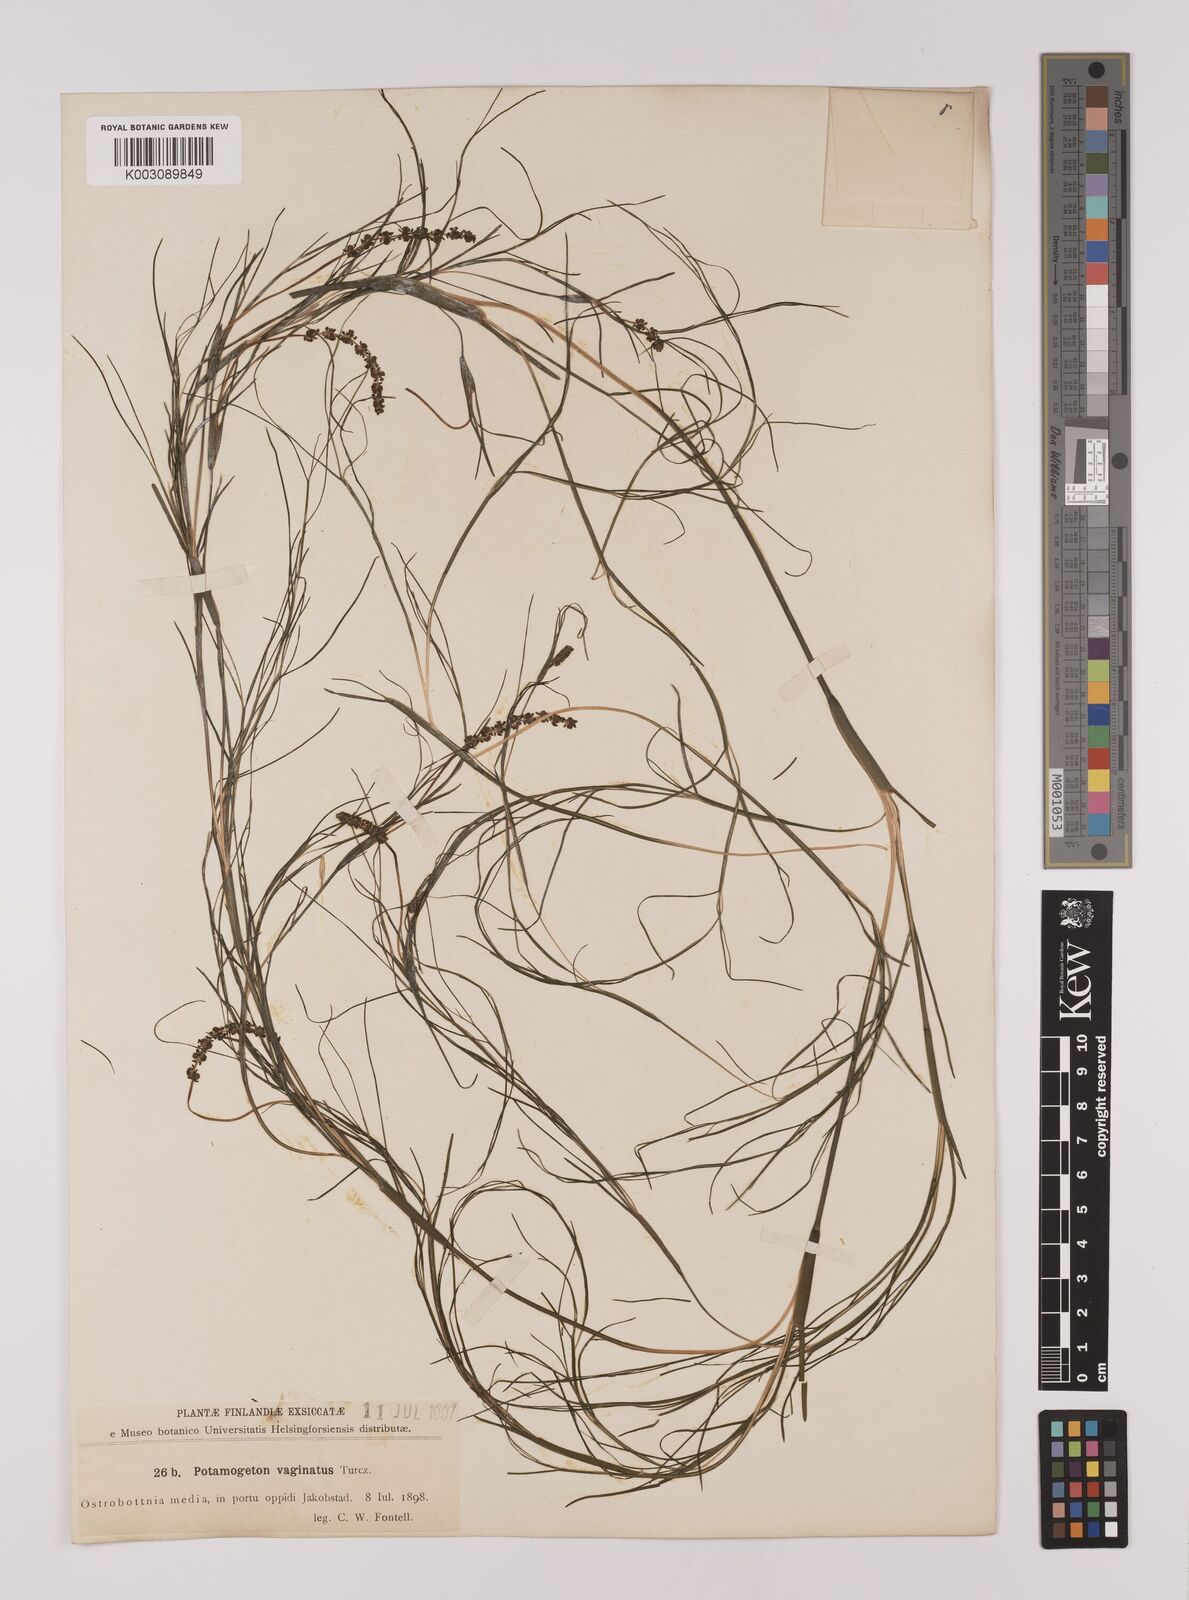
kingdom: Plantae
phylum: Tracheophyta
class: Liliopsida
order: Alismatales
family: Potamogetonaceae
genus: Stuckenia
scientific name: Stuckenia pectinata
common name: Sago pondweed
